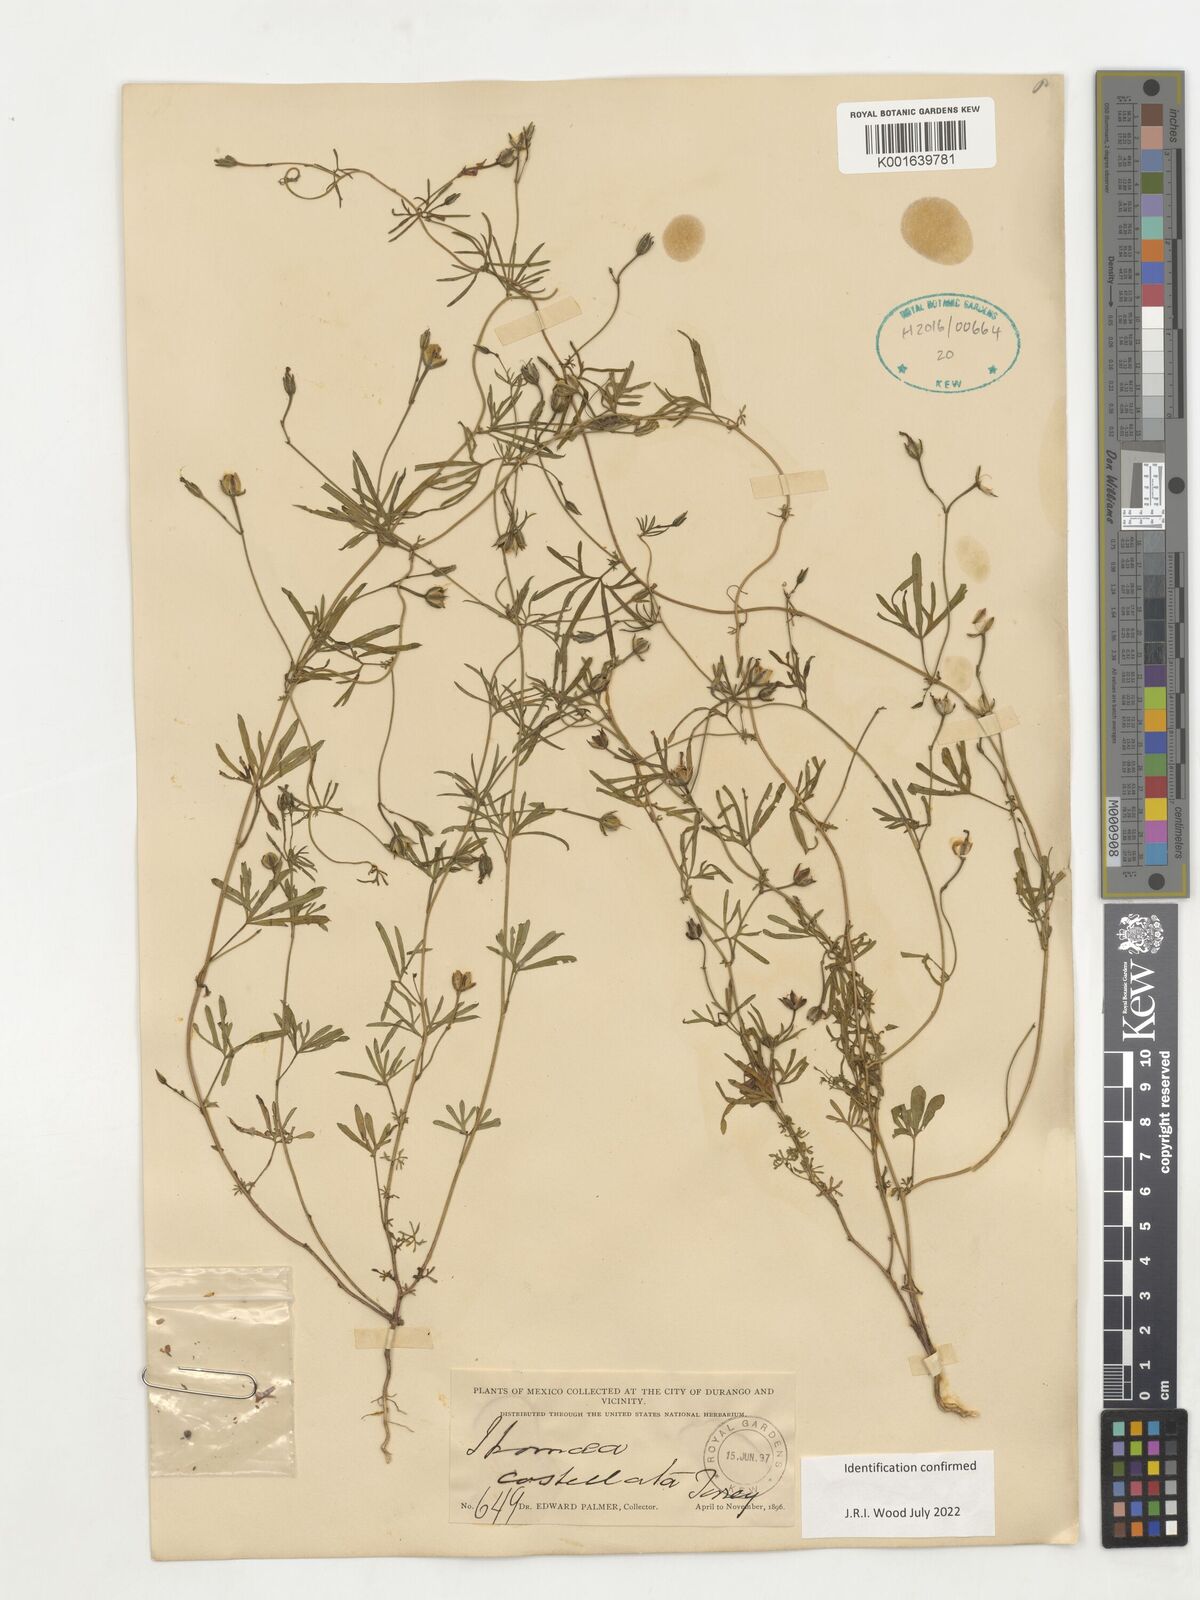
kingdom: Plantae
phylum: Tracheophyta
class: Magnoliopsida
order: Solanales
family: Convolvulaceae
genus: Ipomoea
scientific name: Ipomoea cristulata
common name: Trans-pecos morning-glory
